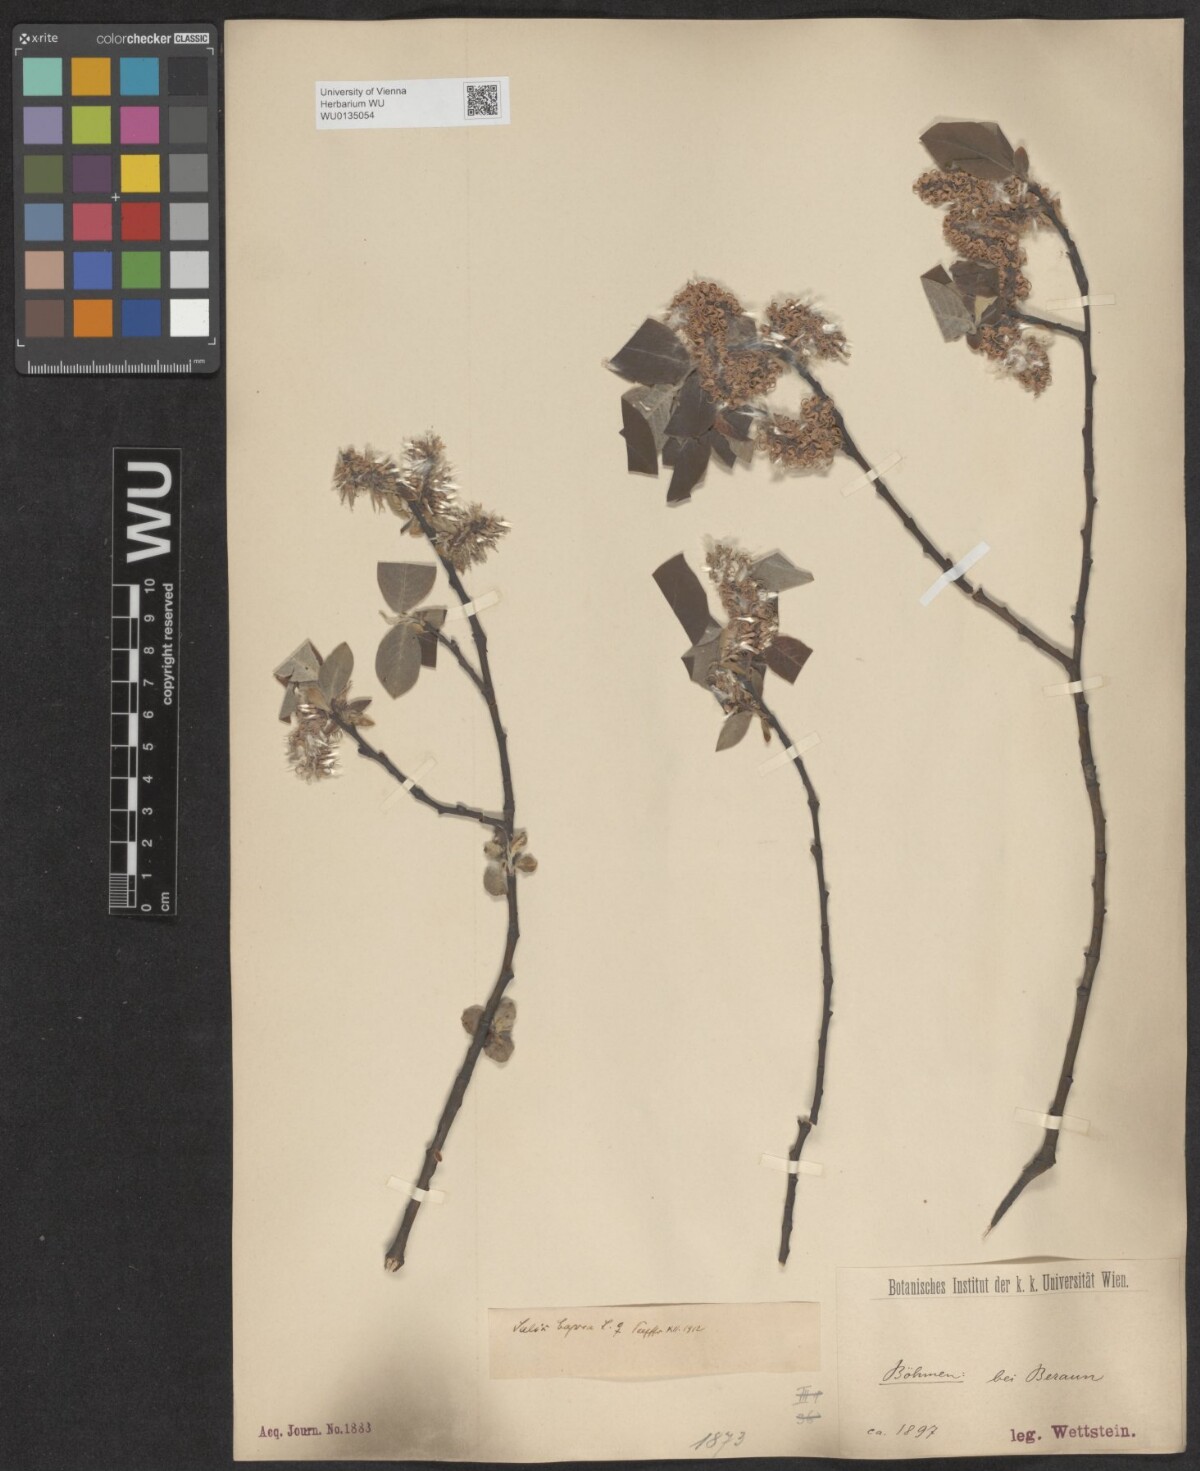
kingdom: Plantae
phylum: Tracheophyta
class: Magnoliopsida
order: Malpighiales
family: Salicaceae
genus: Salix
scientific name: Salix caprea
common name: Goat willow
